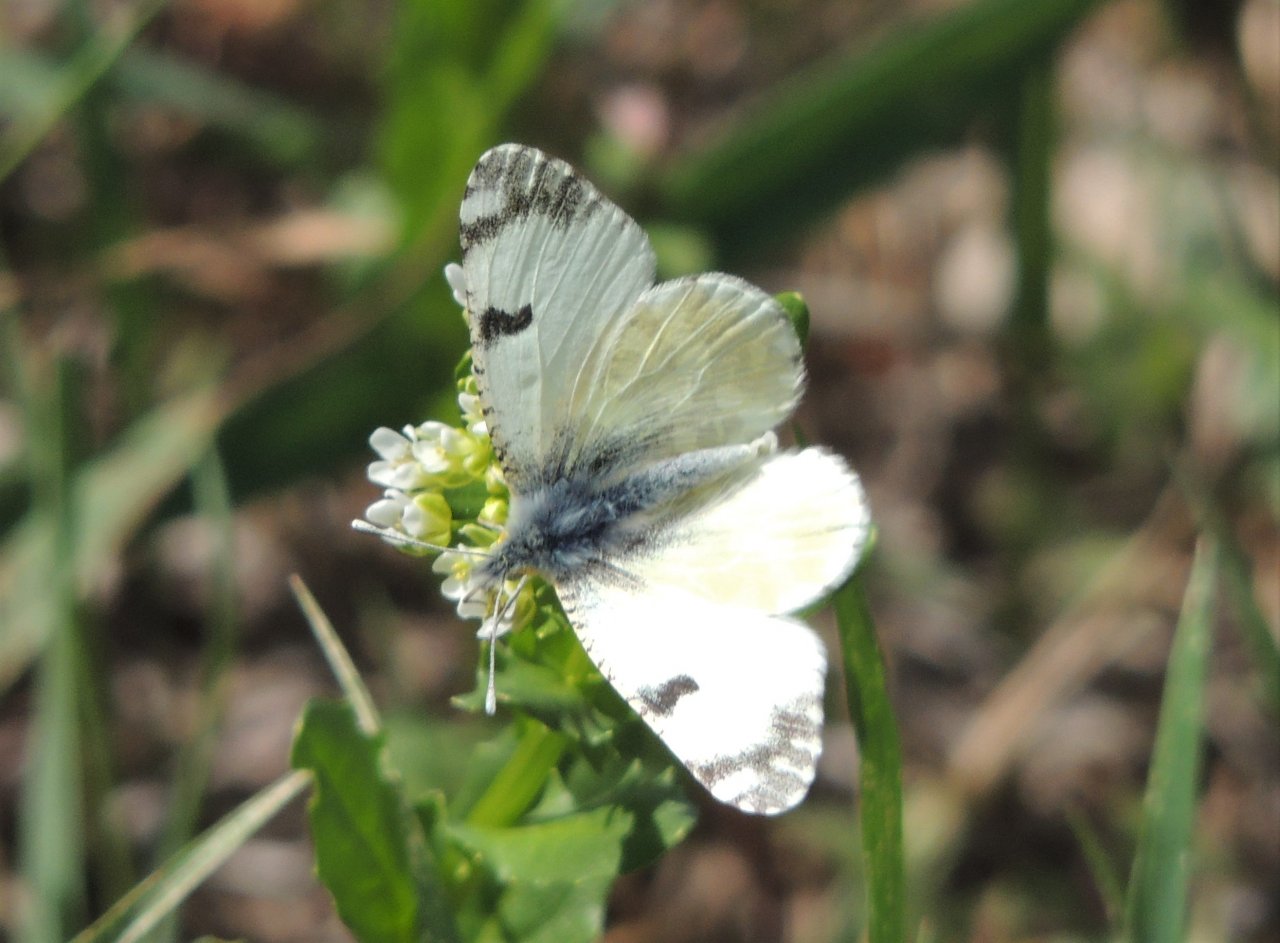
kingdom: Animalia
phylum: Arthropoda
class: Insecta
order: Lepidoptera
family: Pieridae
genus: Euchloe
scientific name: Euchloe lotta
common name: Desert Marble
